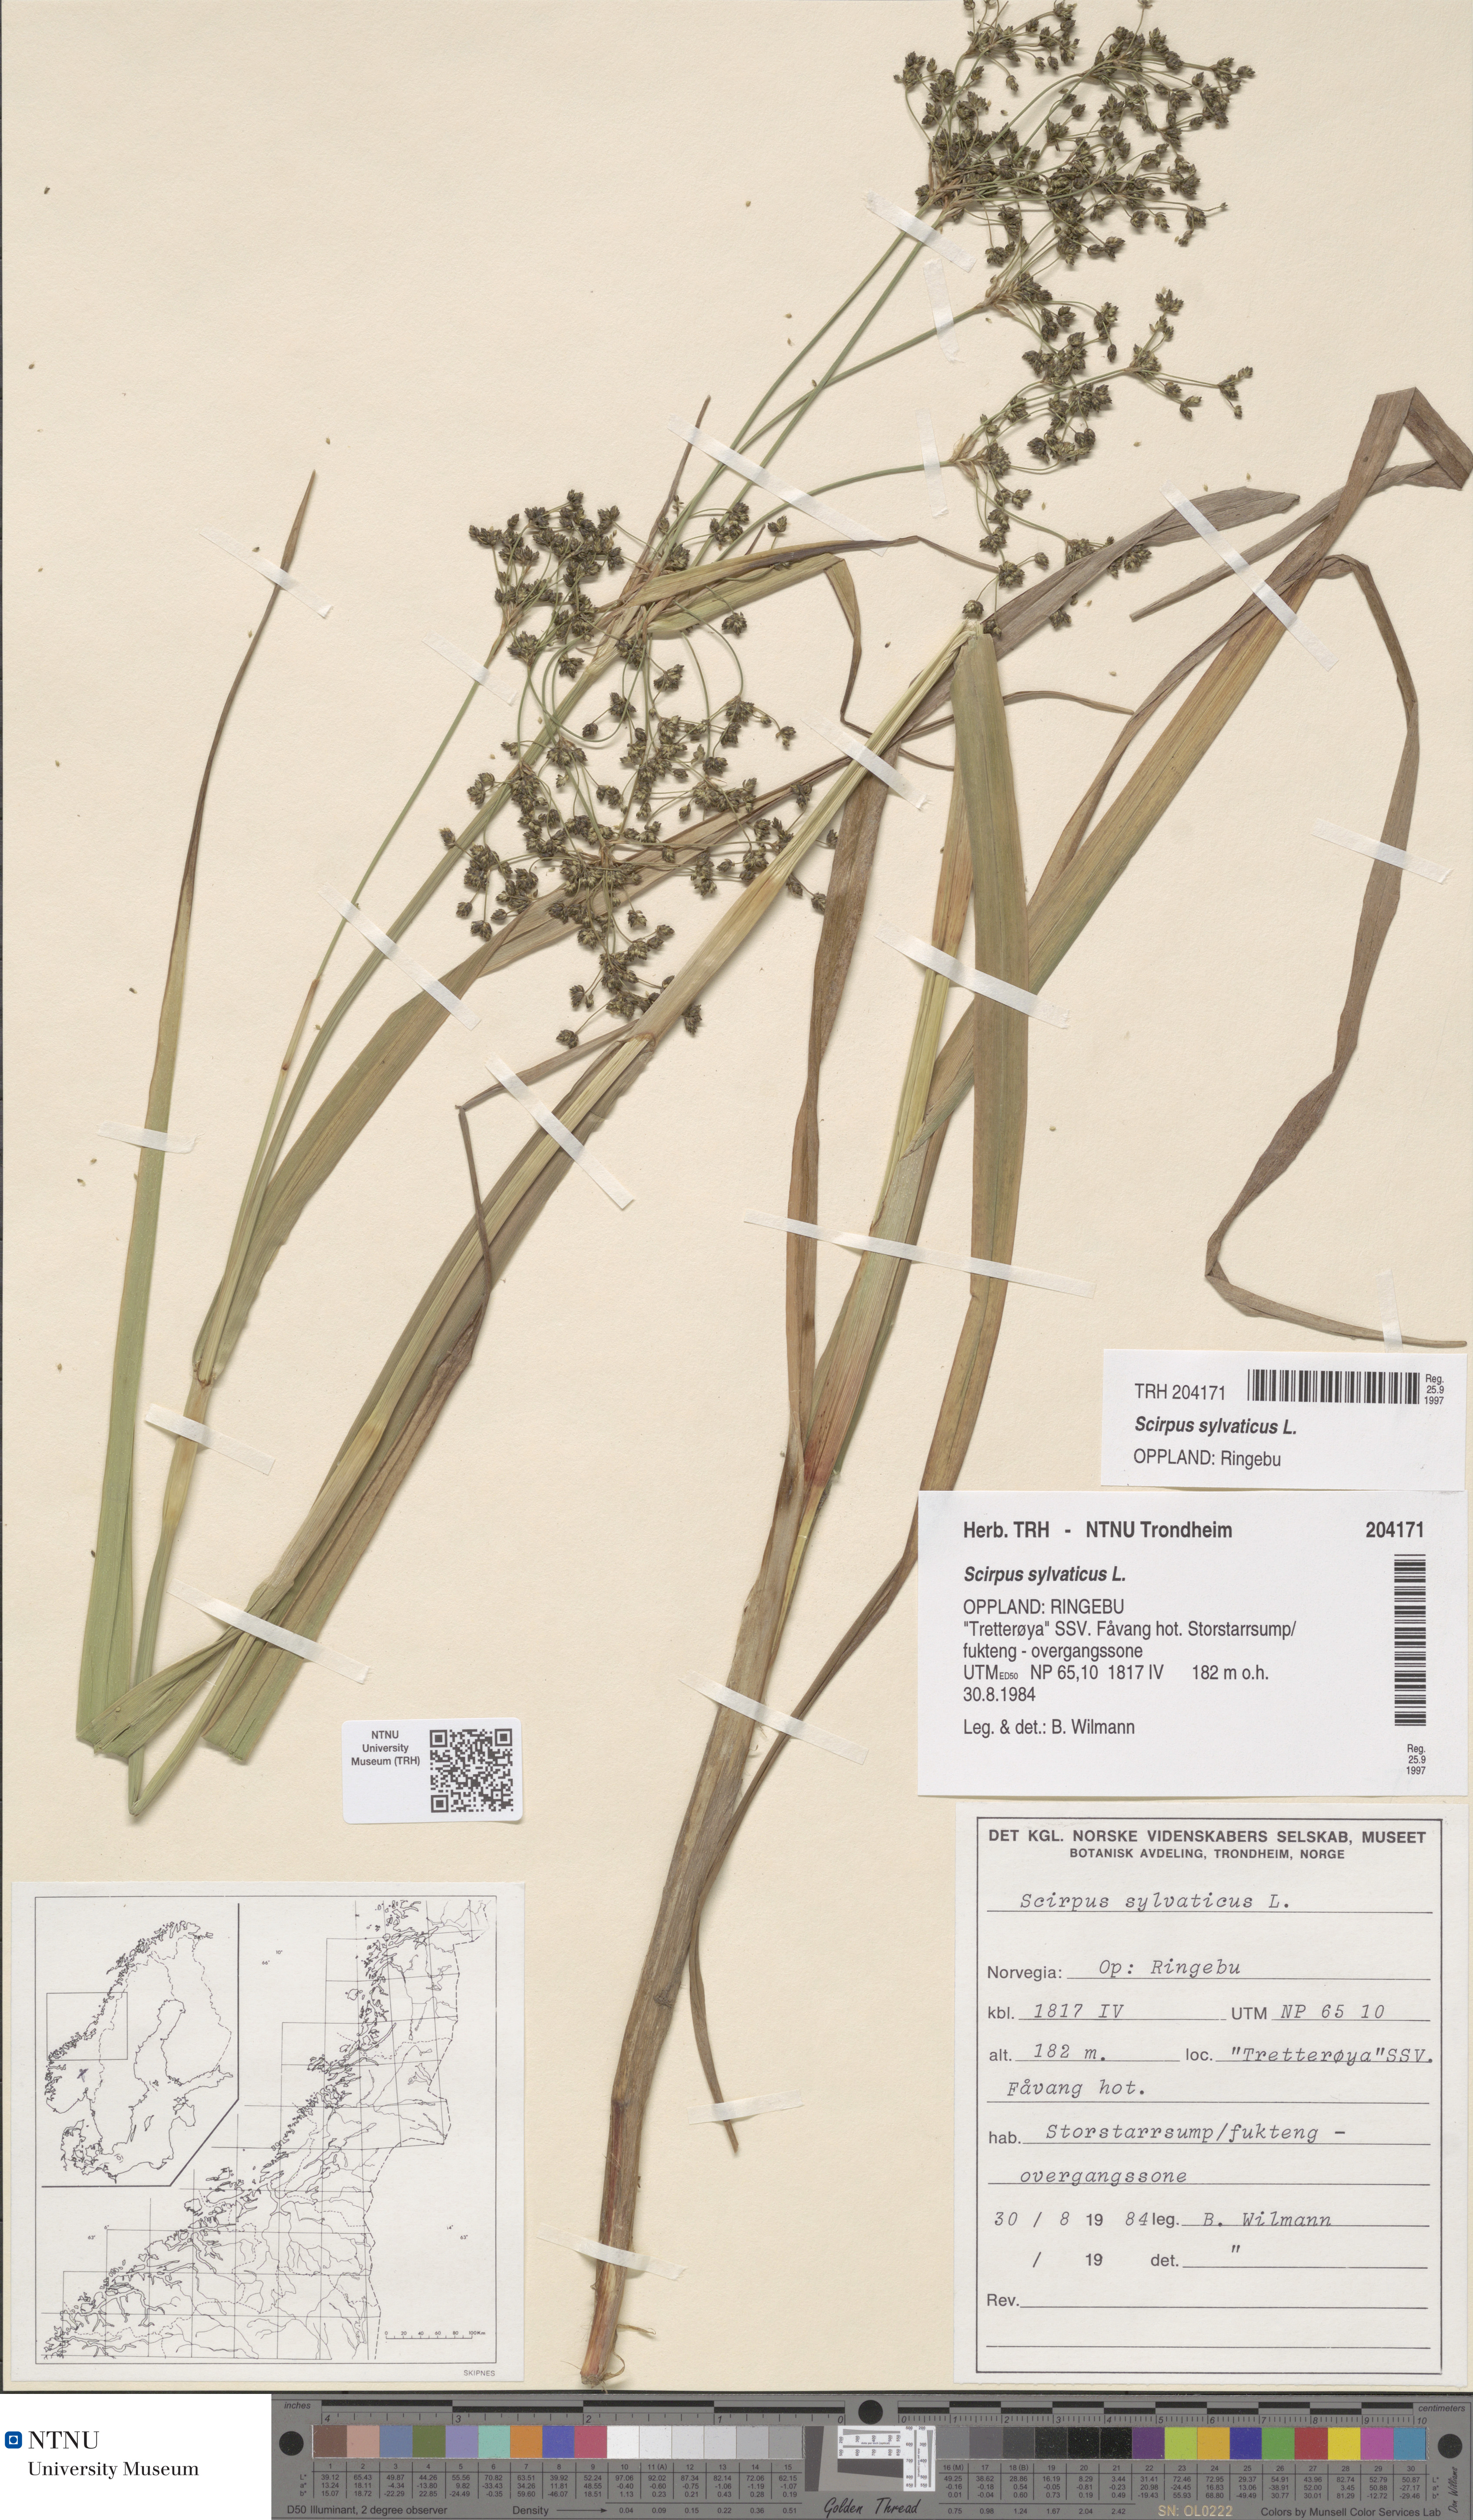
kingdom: Plantae
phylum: Tracheophyta
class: Liliopsida
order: Poales
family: Cyperaceae
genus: Scirpus
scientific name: Scirpus sylvaticus
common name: Wood club-rush
